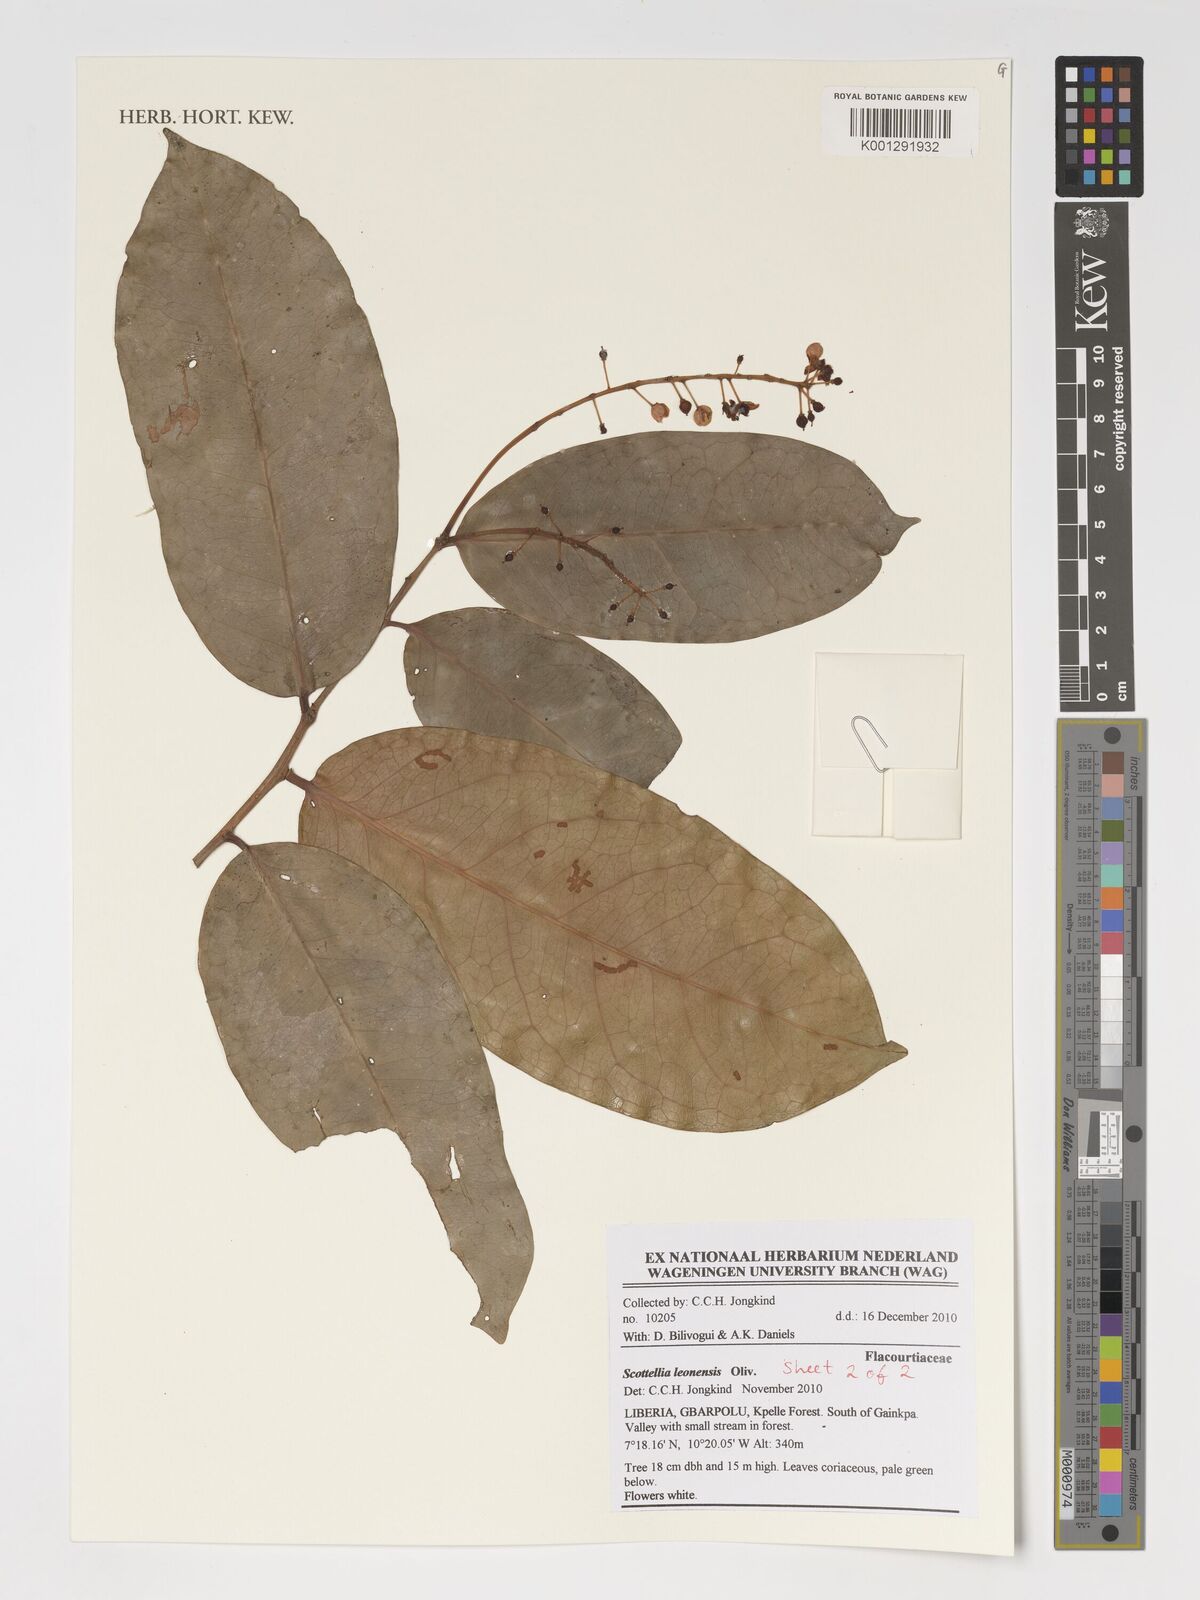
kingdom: Plantae
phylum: Tracheophyta
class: Magnoliopsida
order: Malpighiales
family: Achariaceae
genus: Scottellia
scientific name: Scottellia leonensis
